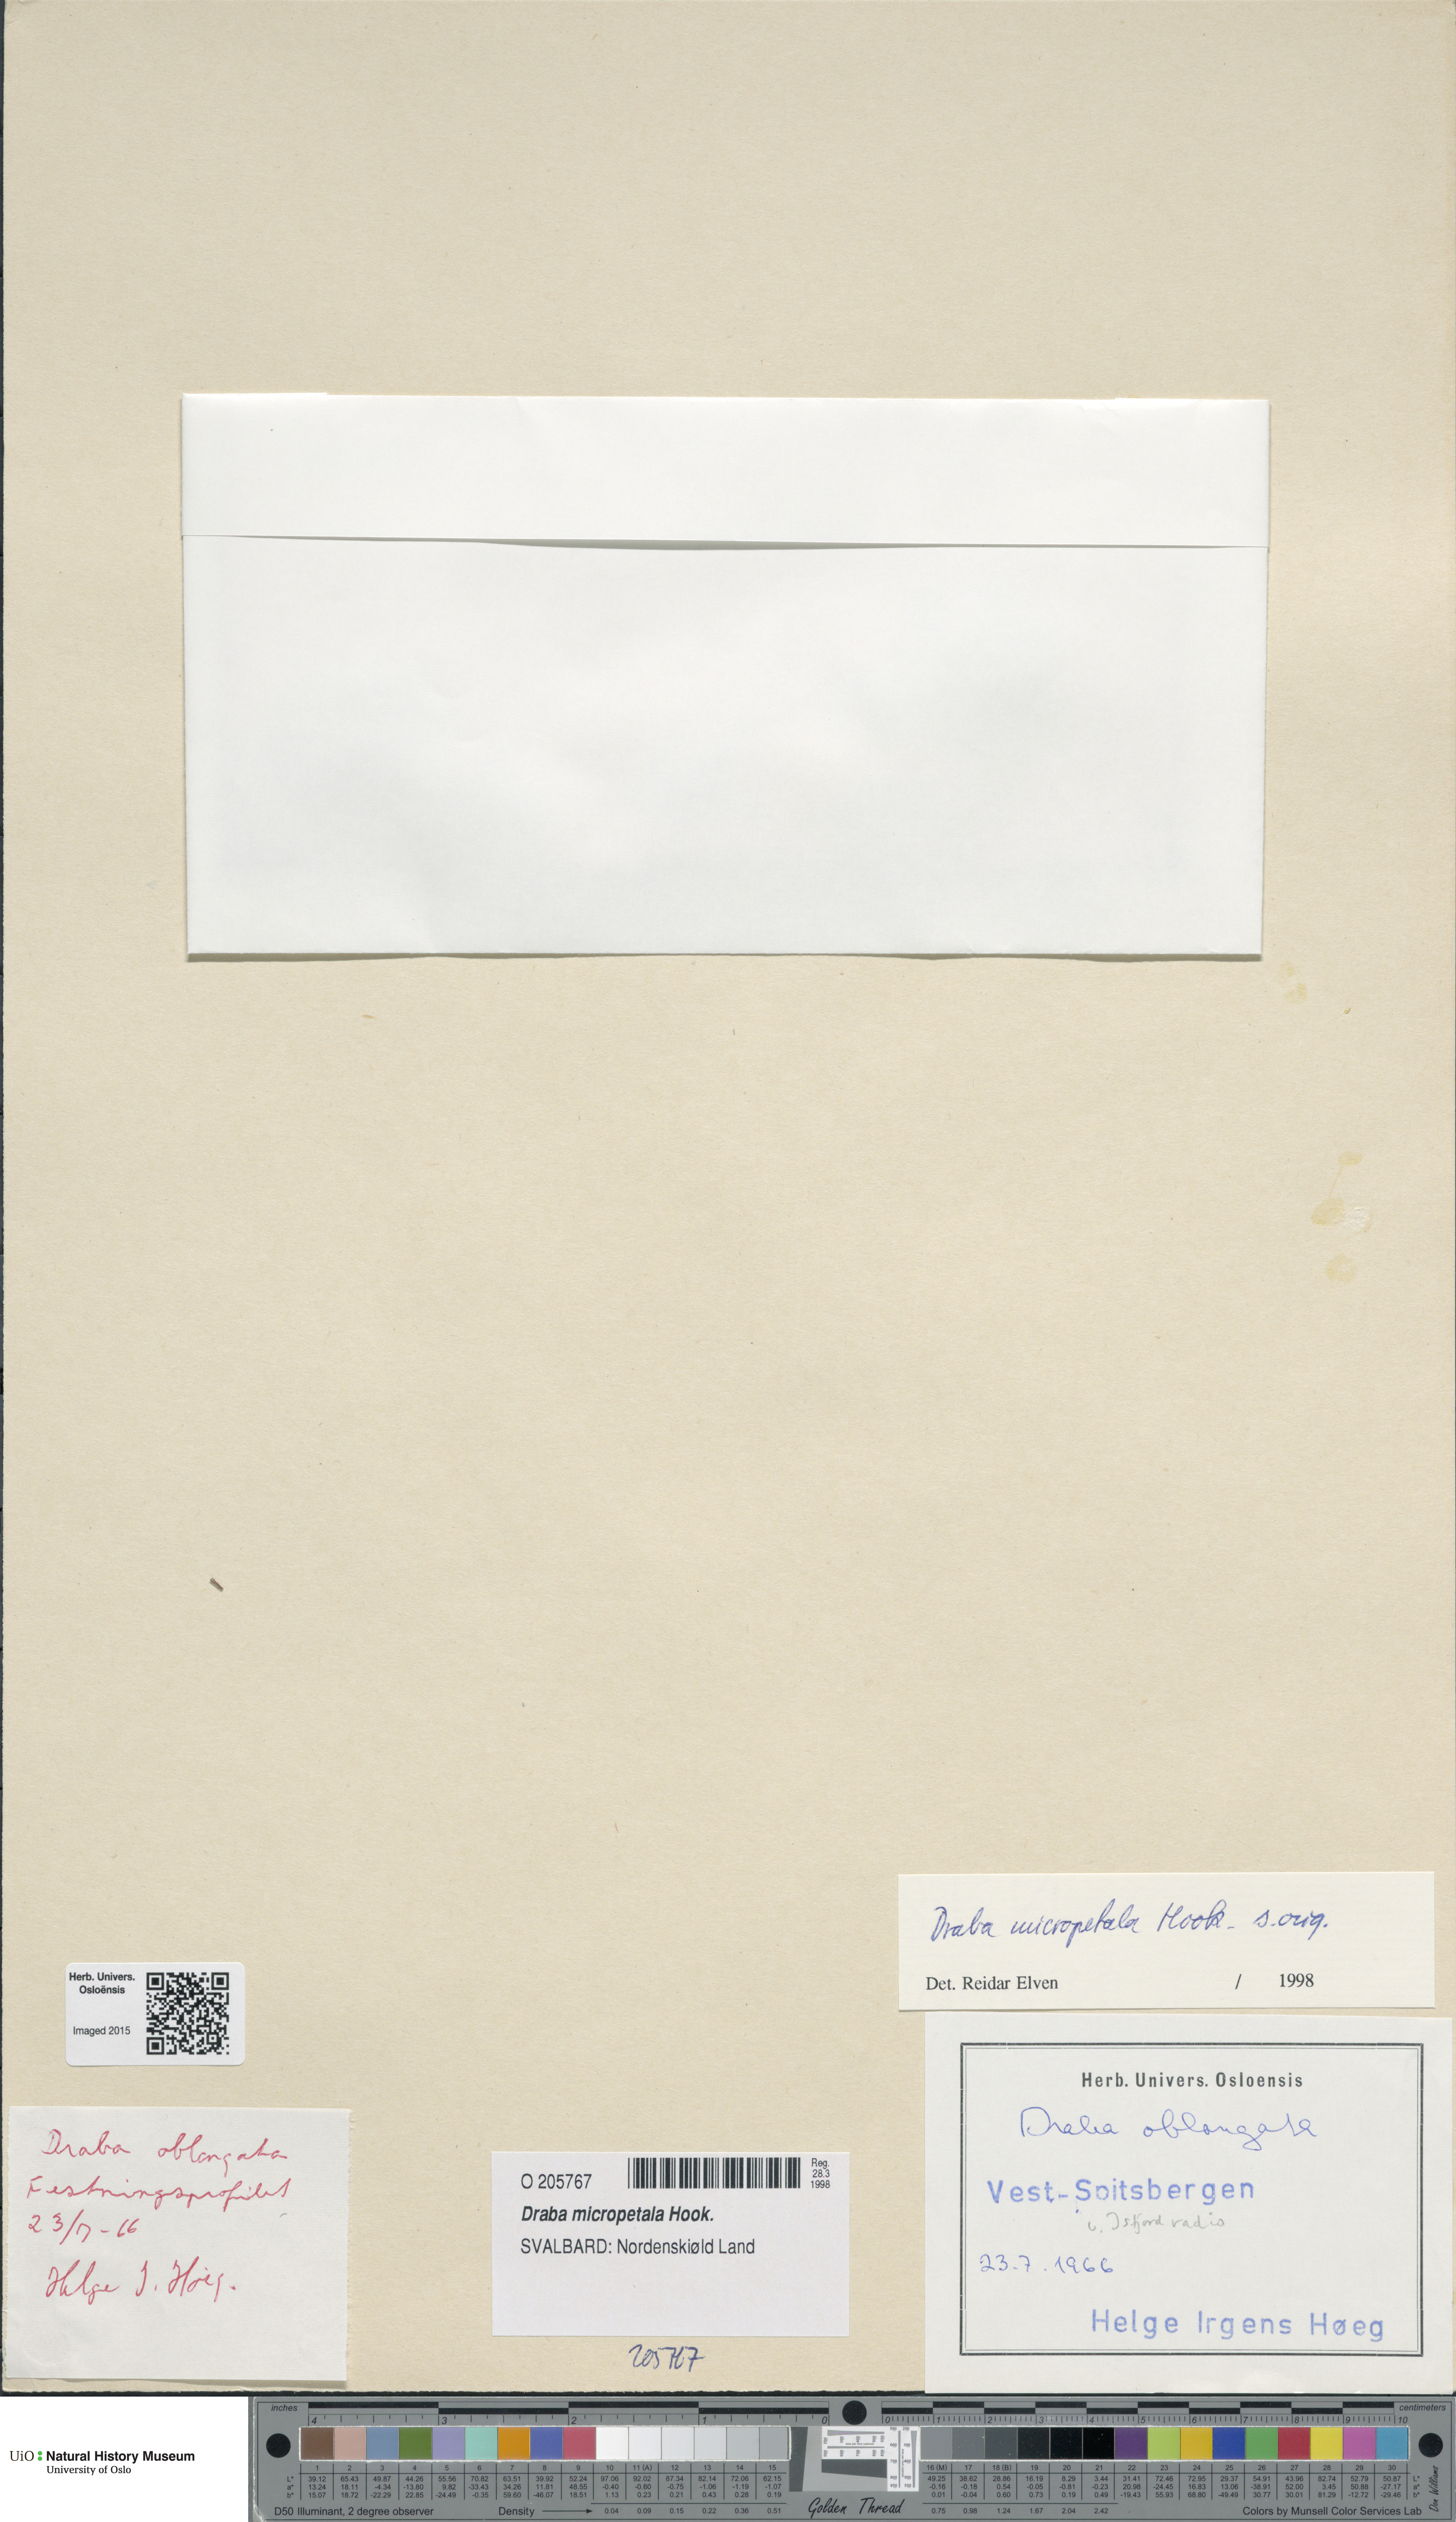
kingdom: Plantae
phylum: Tracheophyta
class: Magnoliopsida
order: Brassicales
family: Brassicaceae
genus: Draba
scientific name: Draba micropetala
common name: Small-flowered draba
